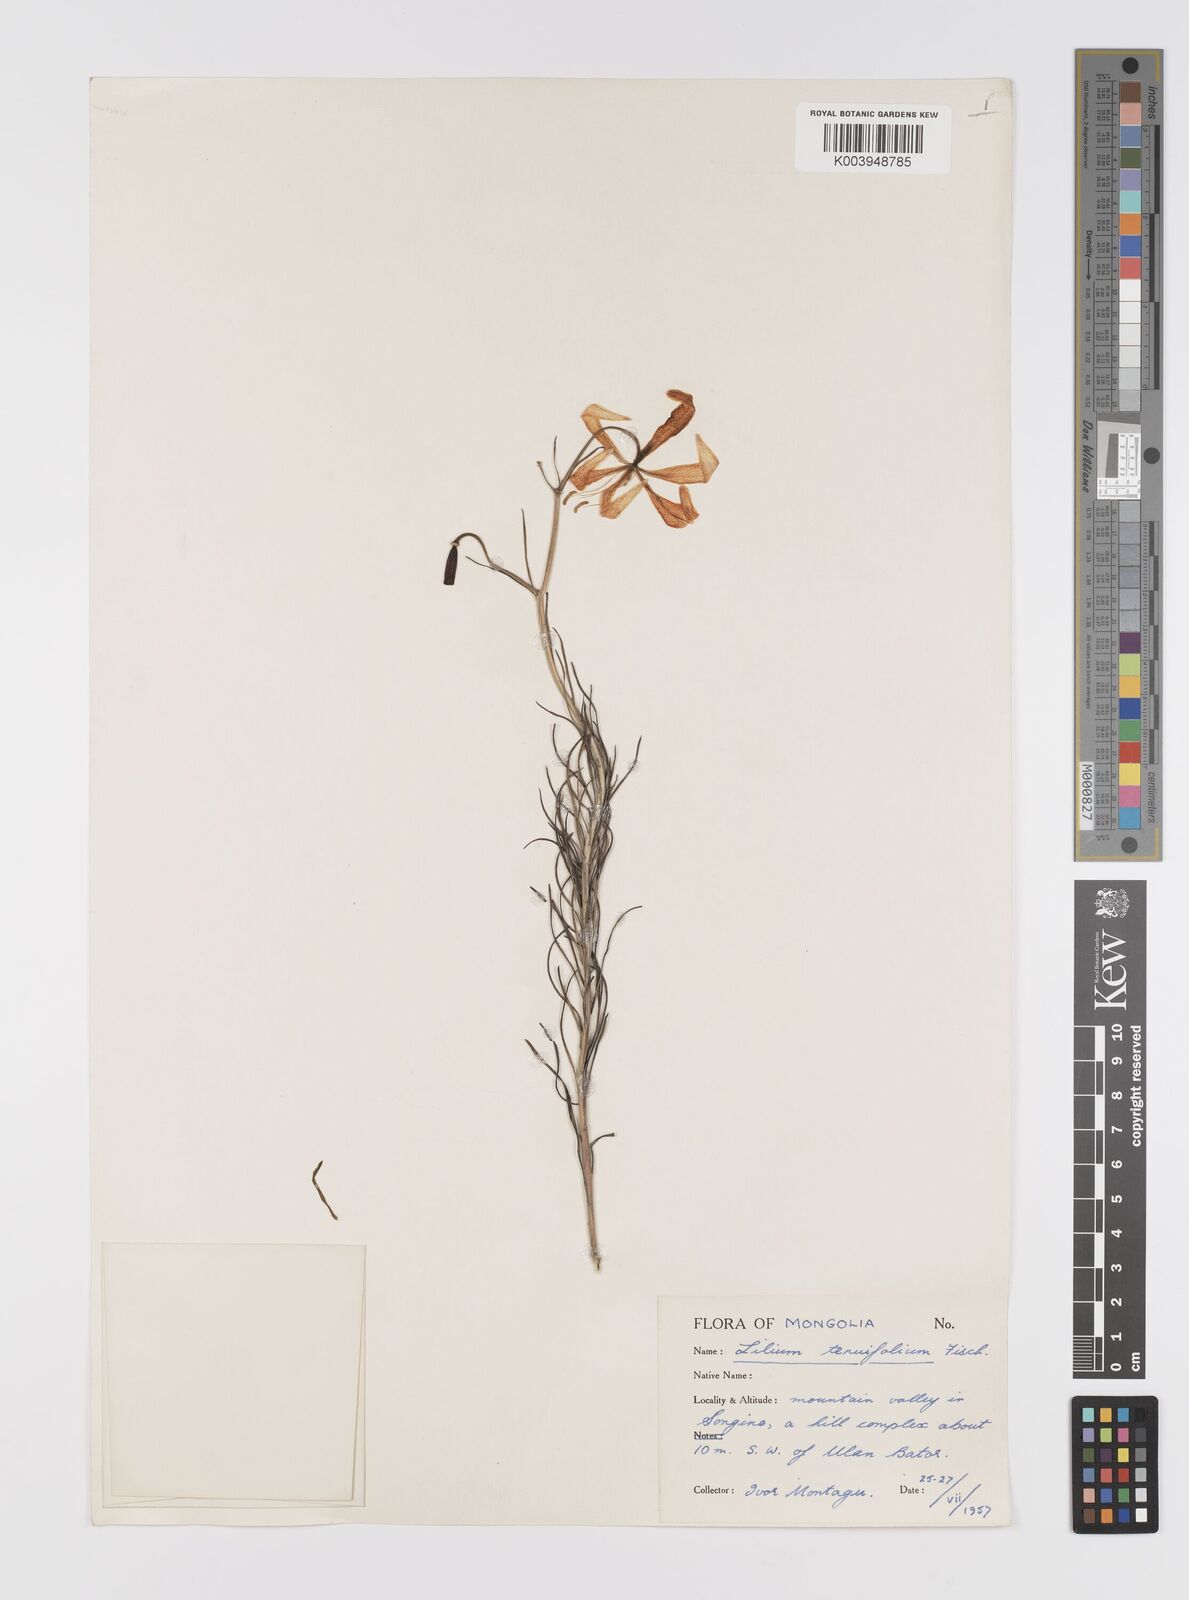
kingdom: Plantae
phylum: Tracheophyta
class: Liliopsida
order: Liliales
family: Liliaceae
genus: Lilium
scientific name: Lilium pumilum
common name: Coral lily
